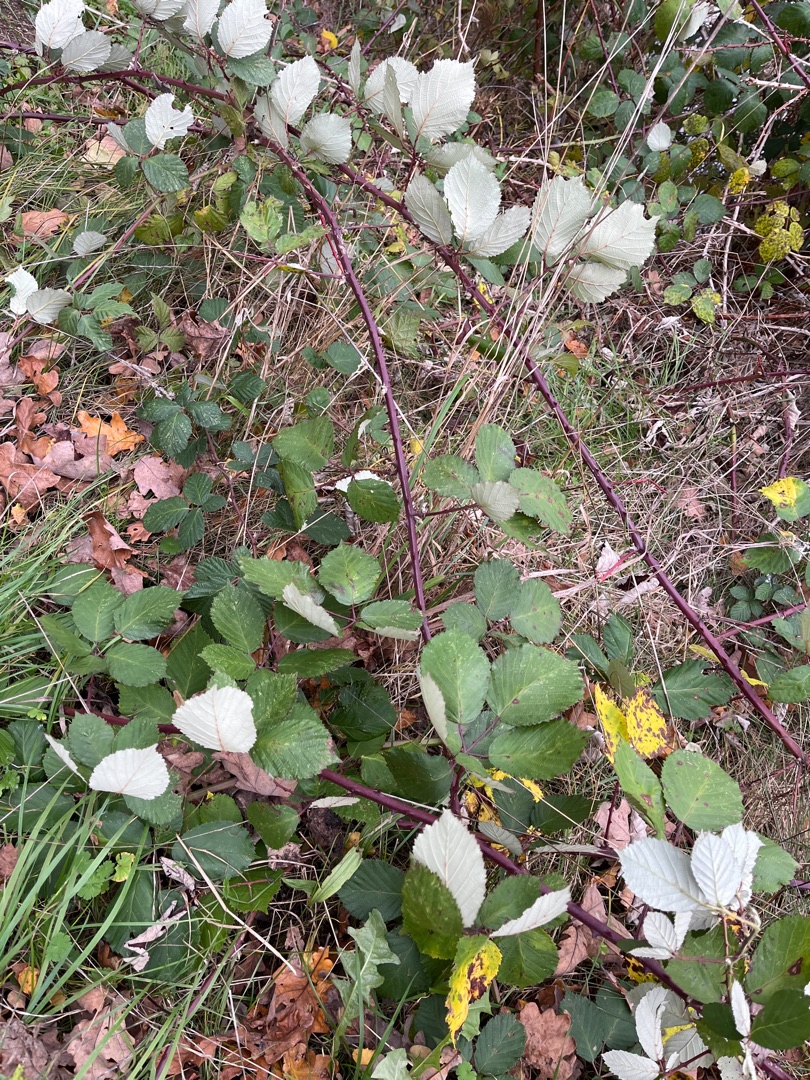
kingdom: Plantae
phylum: Tracheophyta
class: Magnoliopsida
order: Rosales
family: Rosaceae
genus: Rubus
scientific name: Rubus armeniacus
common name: Armensk brombær
